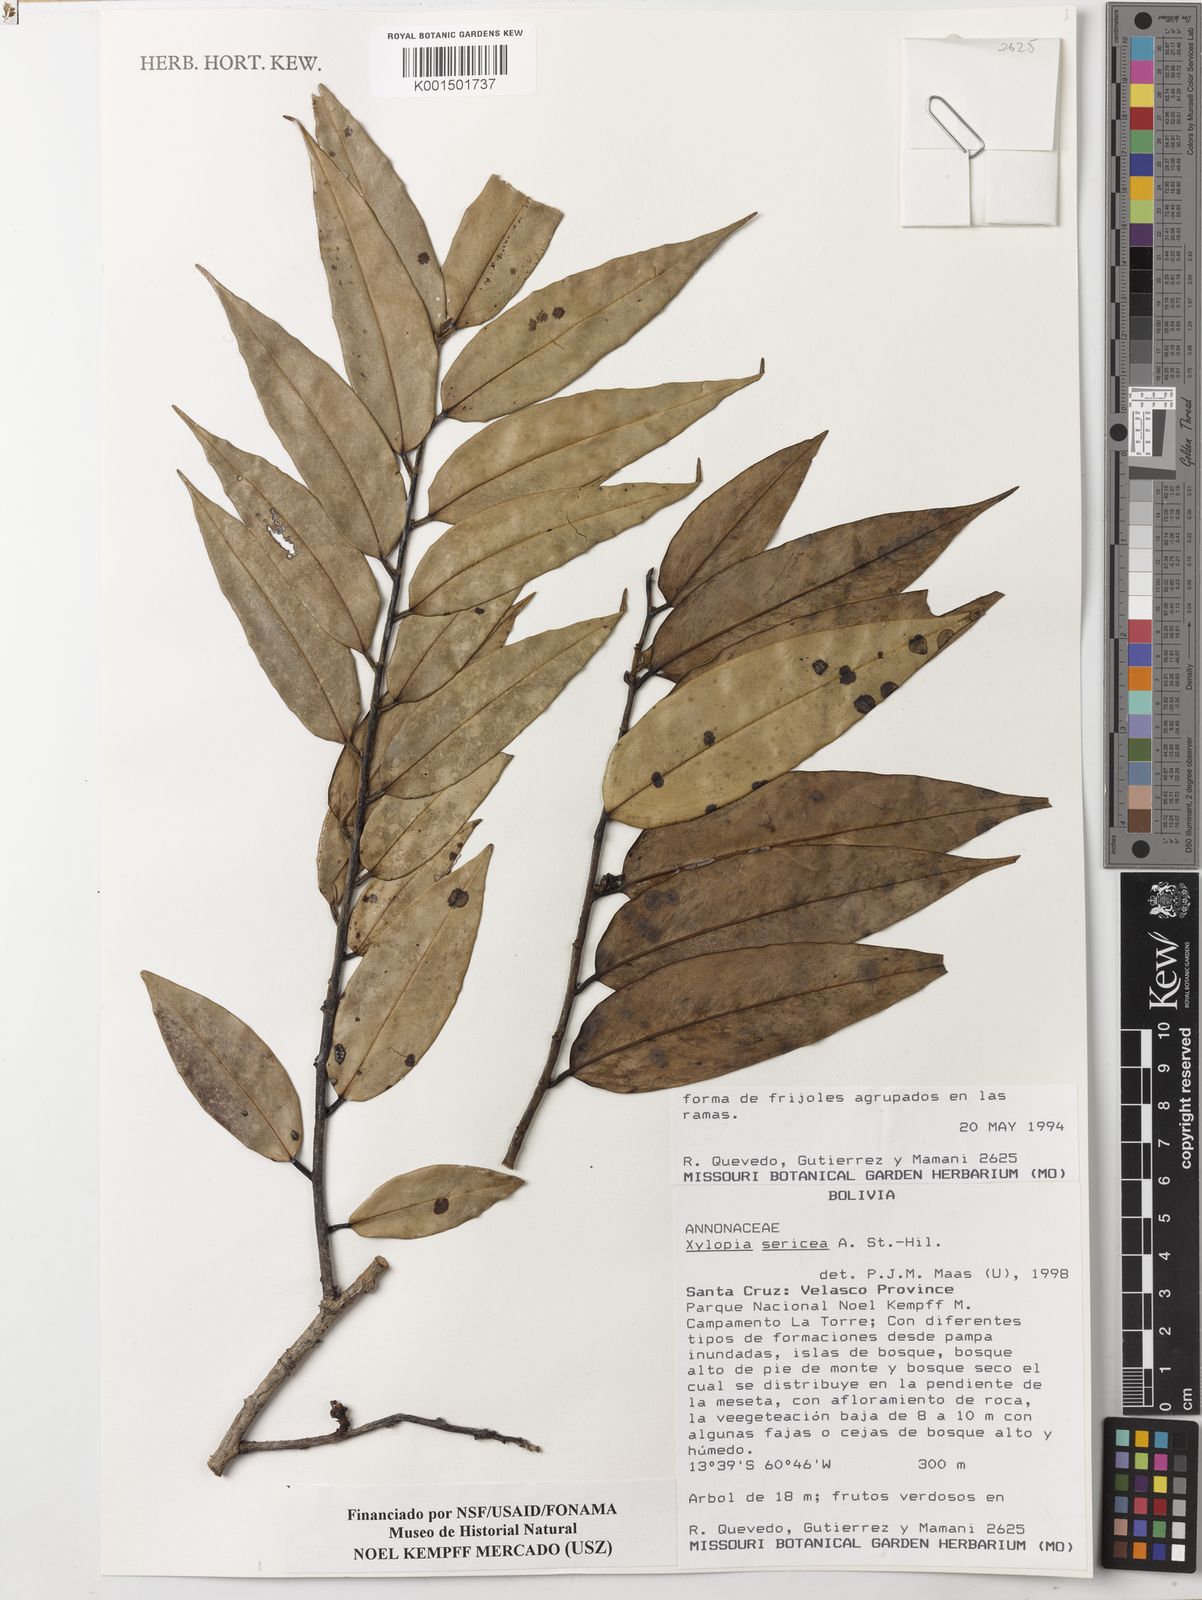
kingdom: Plantae
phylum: Tracheophyta
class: Magnoliopsida
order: Magnoliales
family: Annonaceae
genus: Xylopia
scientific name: Xylopia sericea
